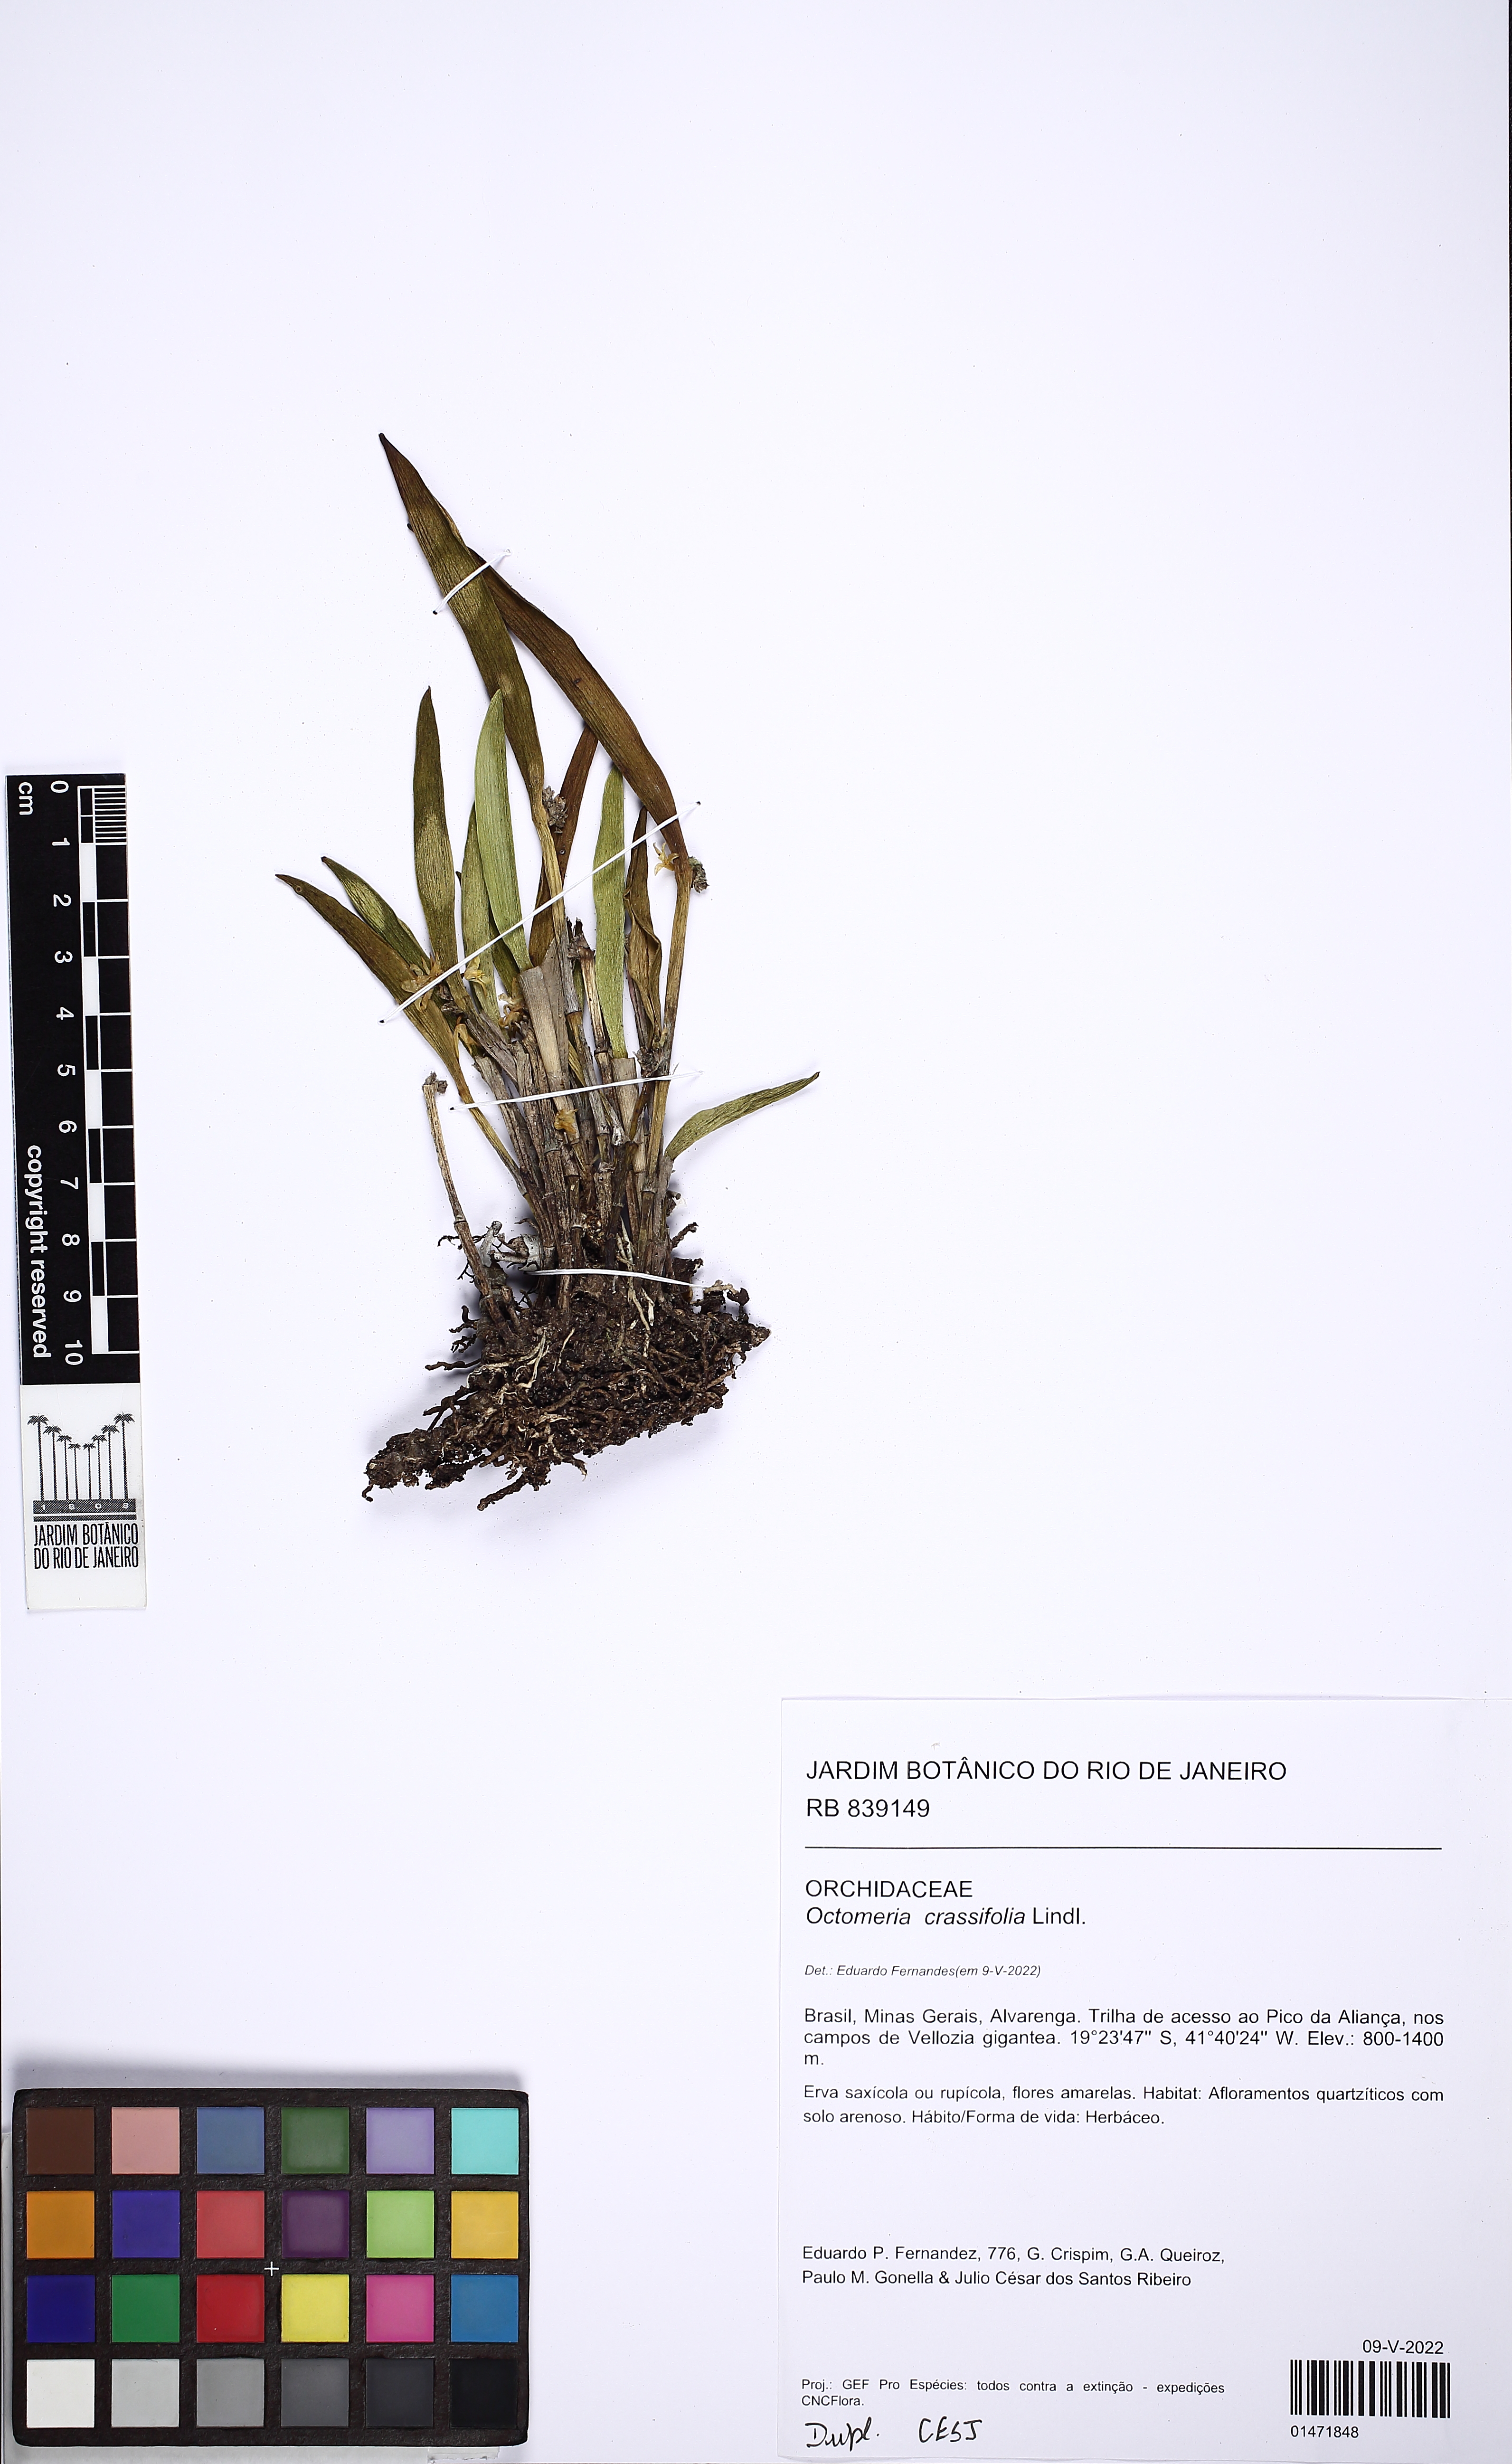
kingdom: Plantae
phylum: Tracheophyta
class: Liliopsida
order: Asparagales
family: Orchidaceae
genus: Octomeria
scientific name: Octomeria crassifolia
